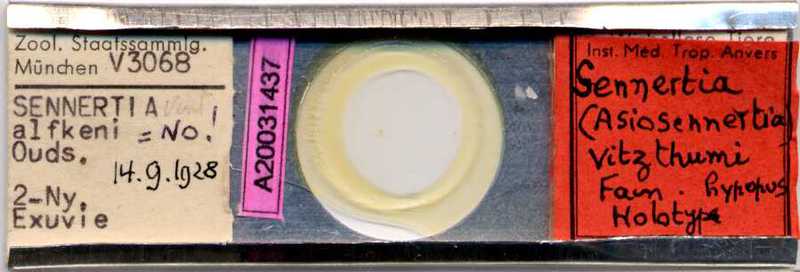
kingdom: Animalia
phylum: Arthropoda
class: Arachnida
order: Sarcoptiformes
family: Chaetodactylidae
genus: Sennertia
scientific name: Sennertia vitzthumi
